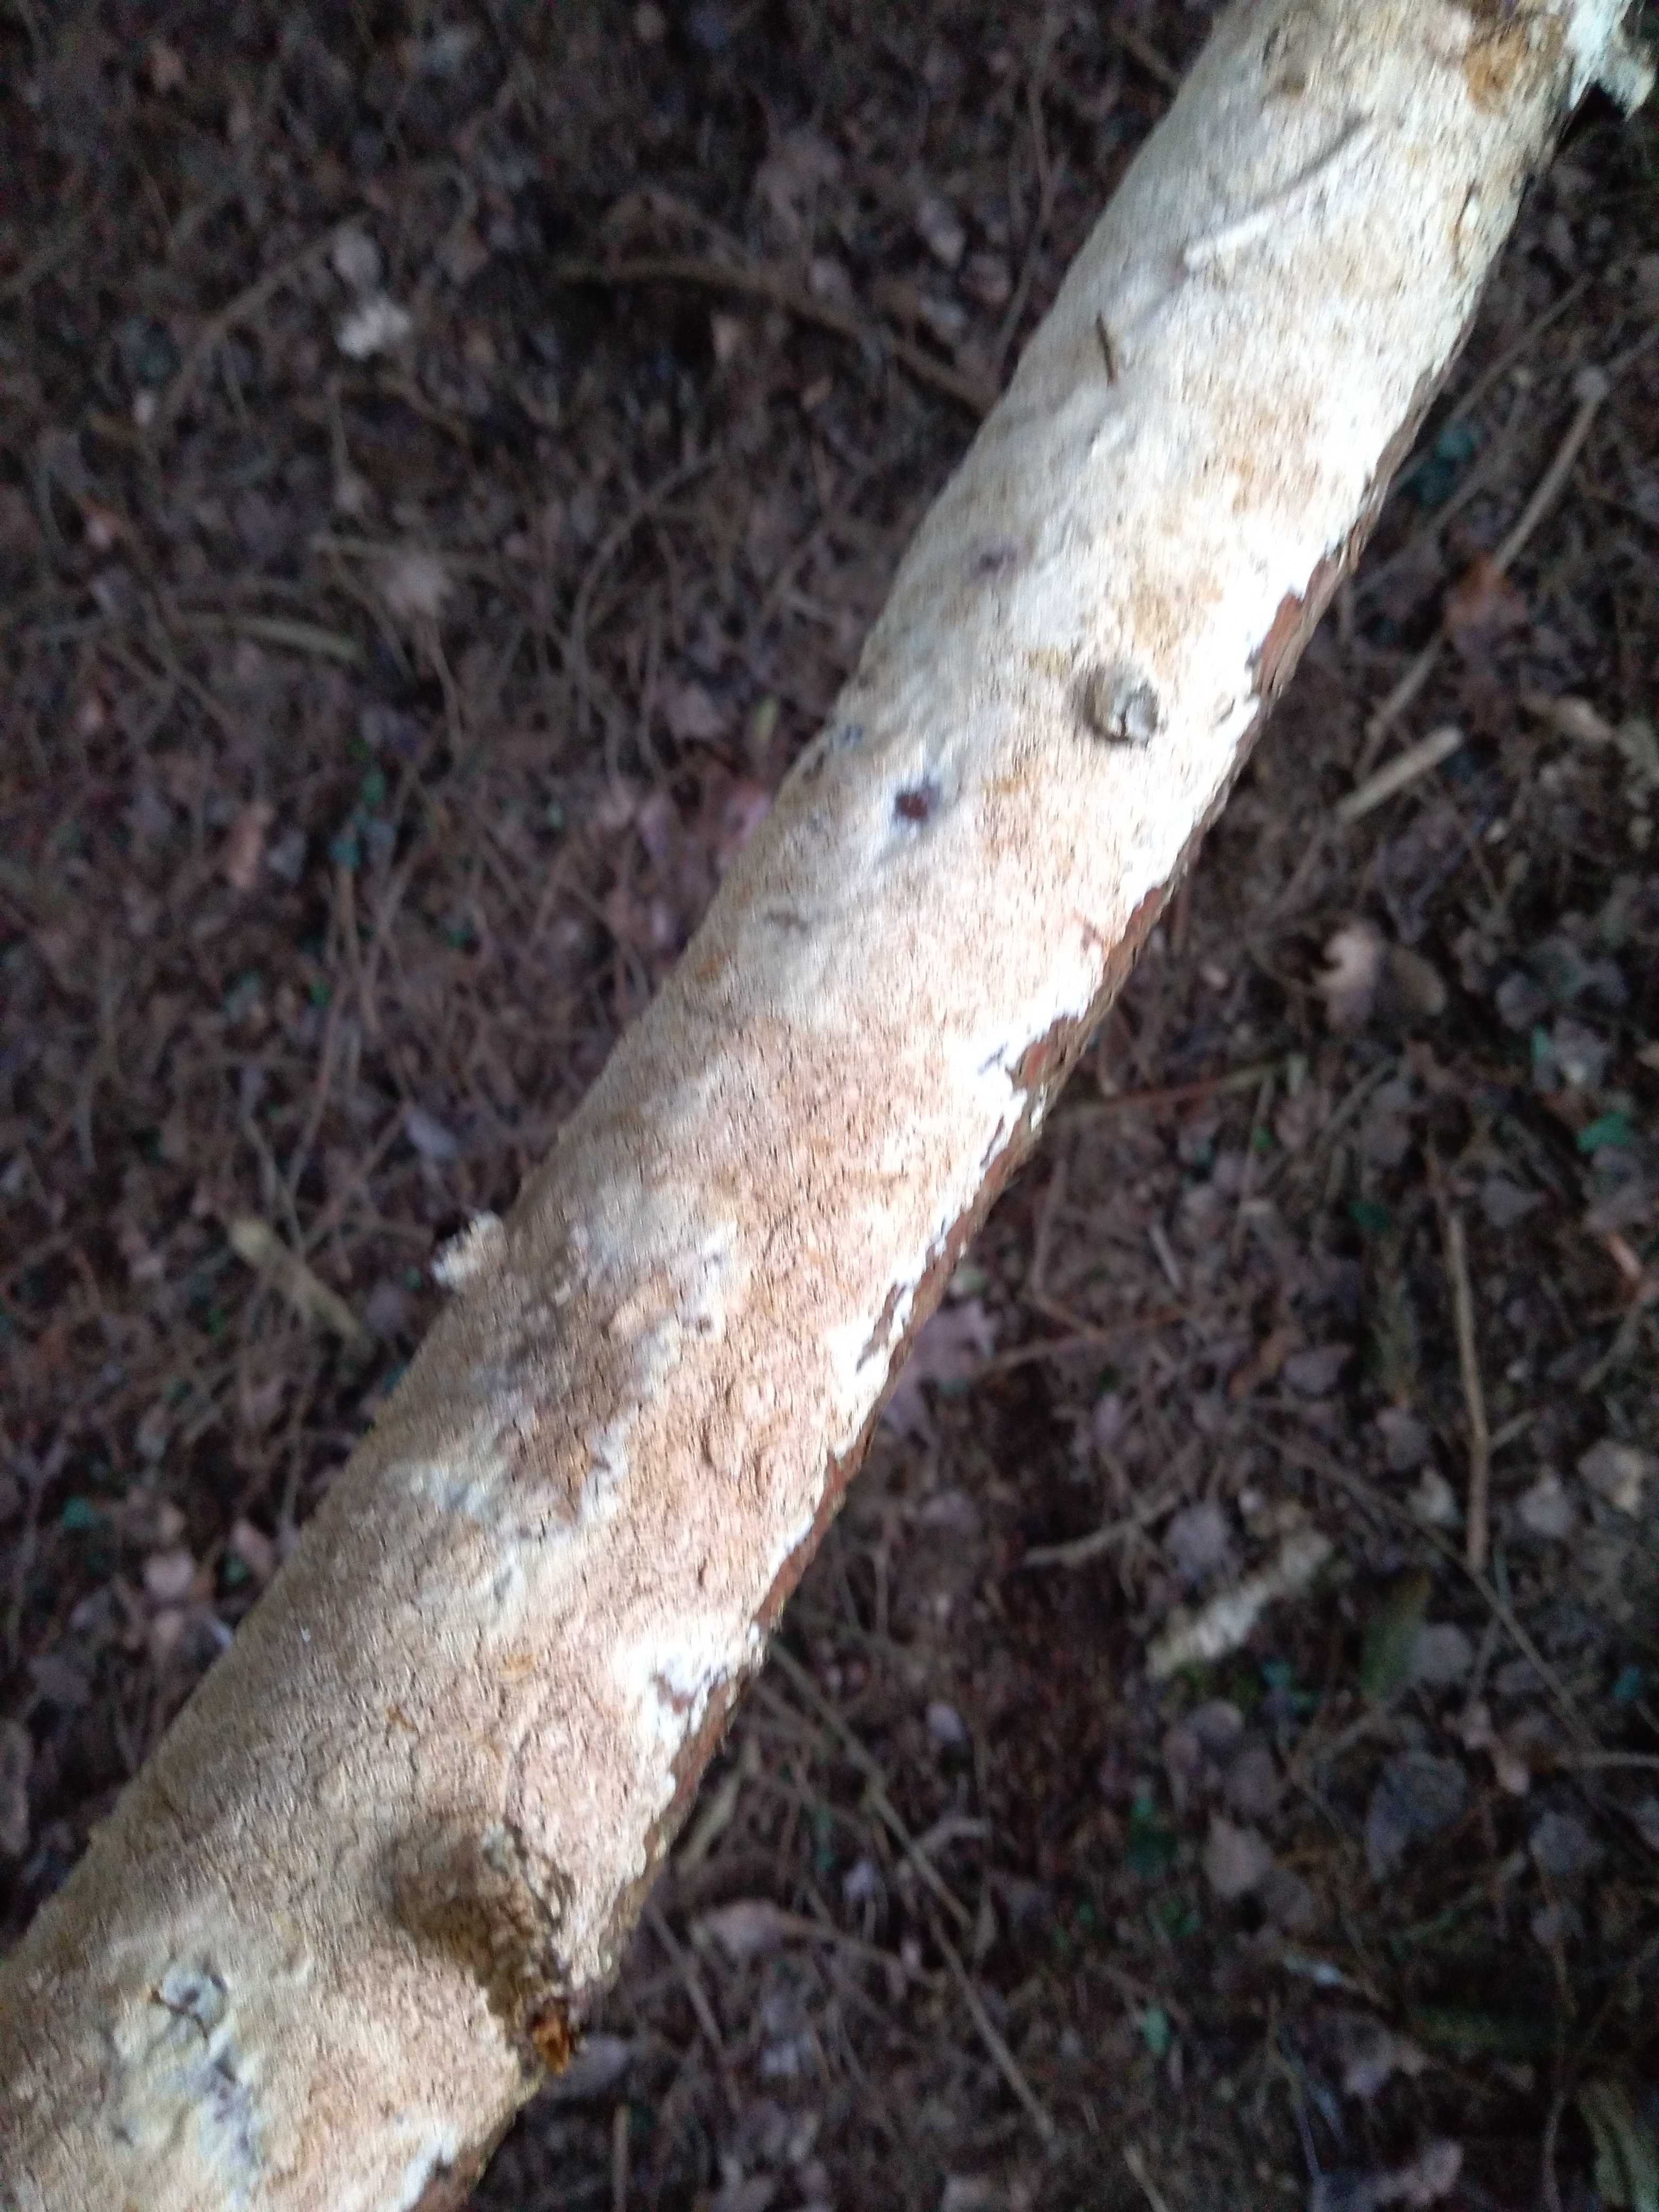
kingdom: Fungi
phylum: Basidiomycota
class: Agaricomycetes
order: Polyporales
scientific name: Polyporales
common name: poresvampordenen
